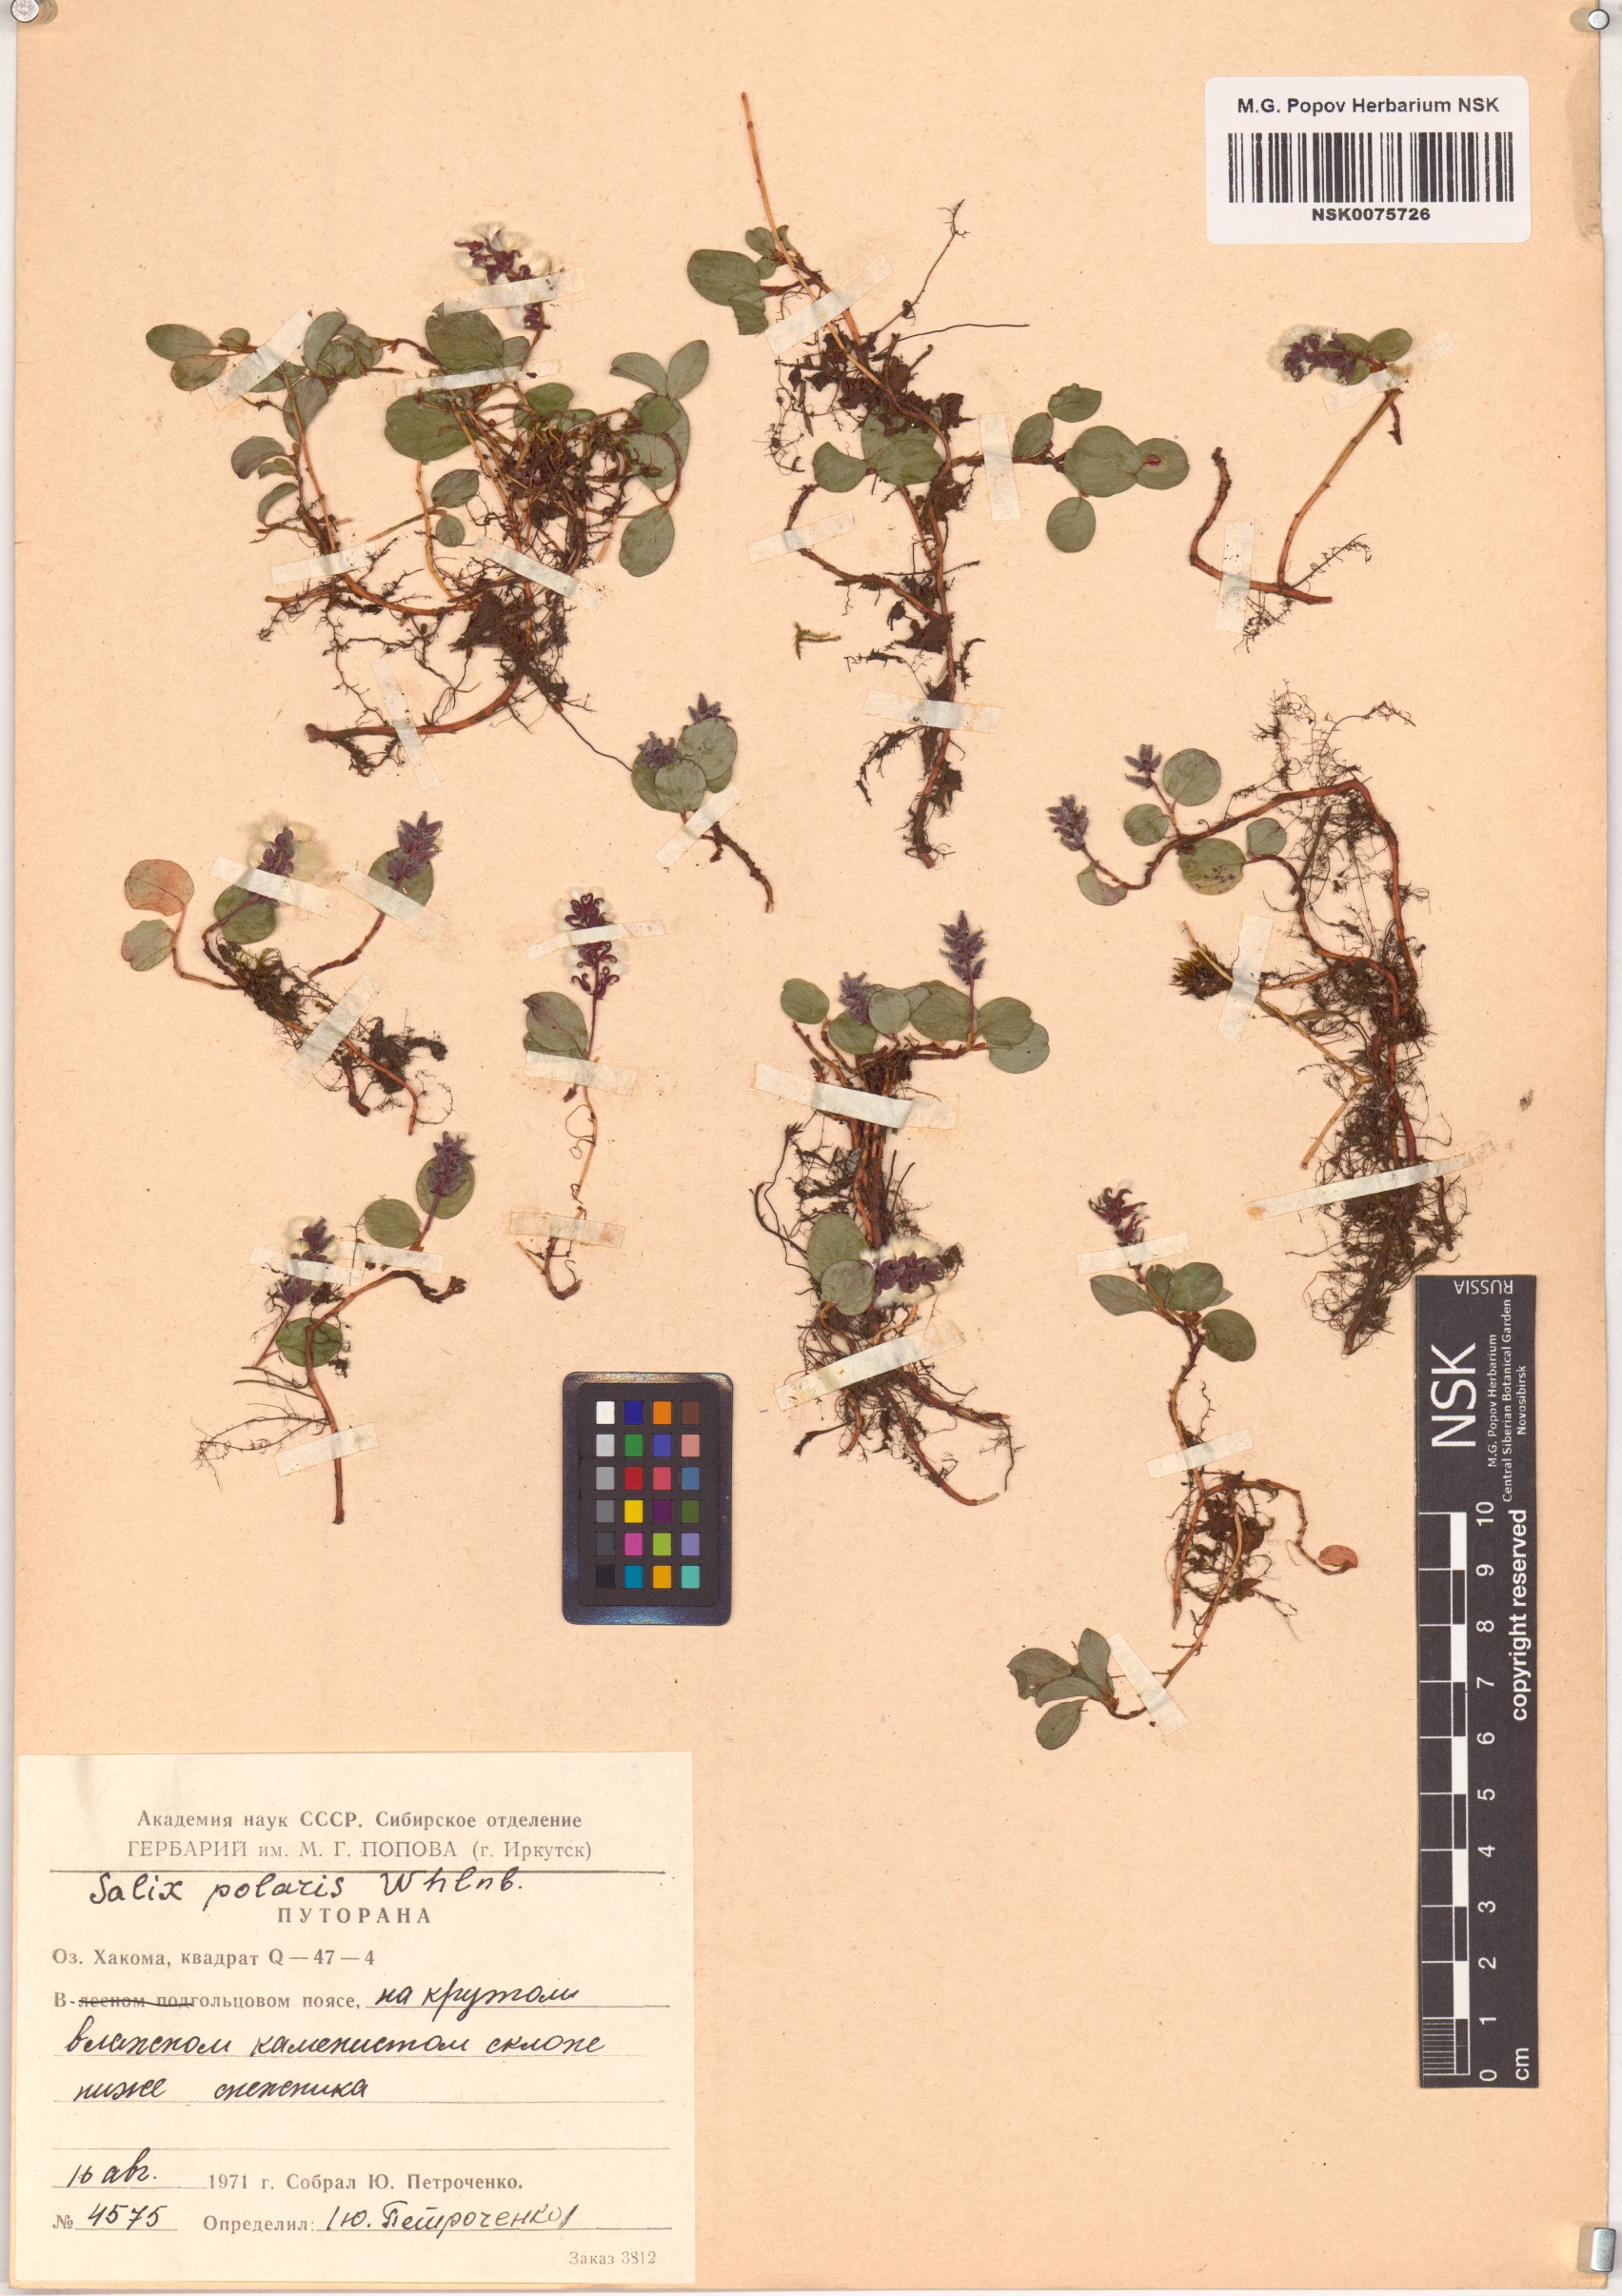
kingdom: Plantae
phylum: Tracheophyta
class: Magnoliopsida
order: Malpighiales
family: Salicaceae
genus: Salix
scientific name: Salix polaris
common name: Polar willow
